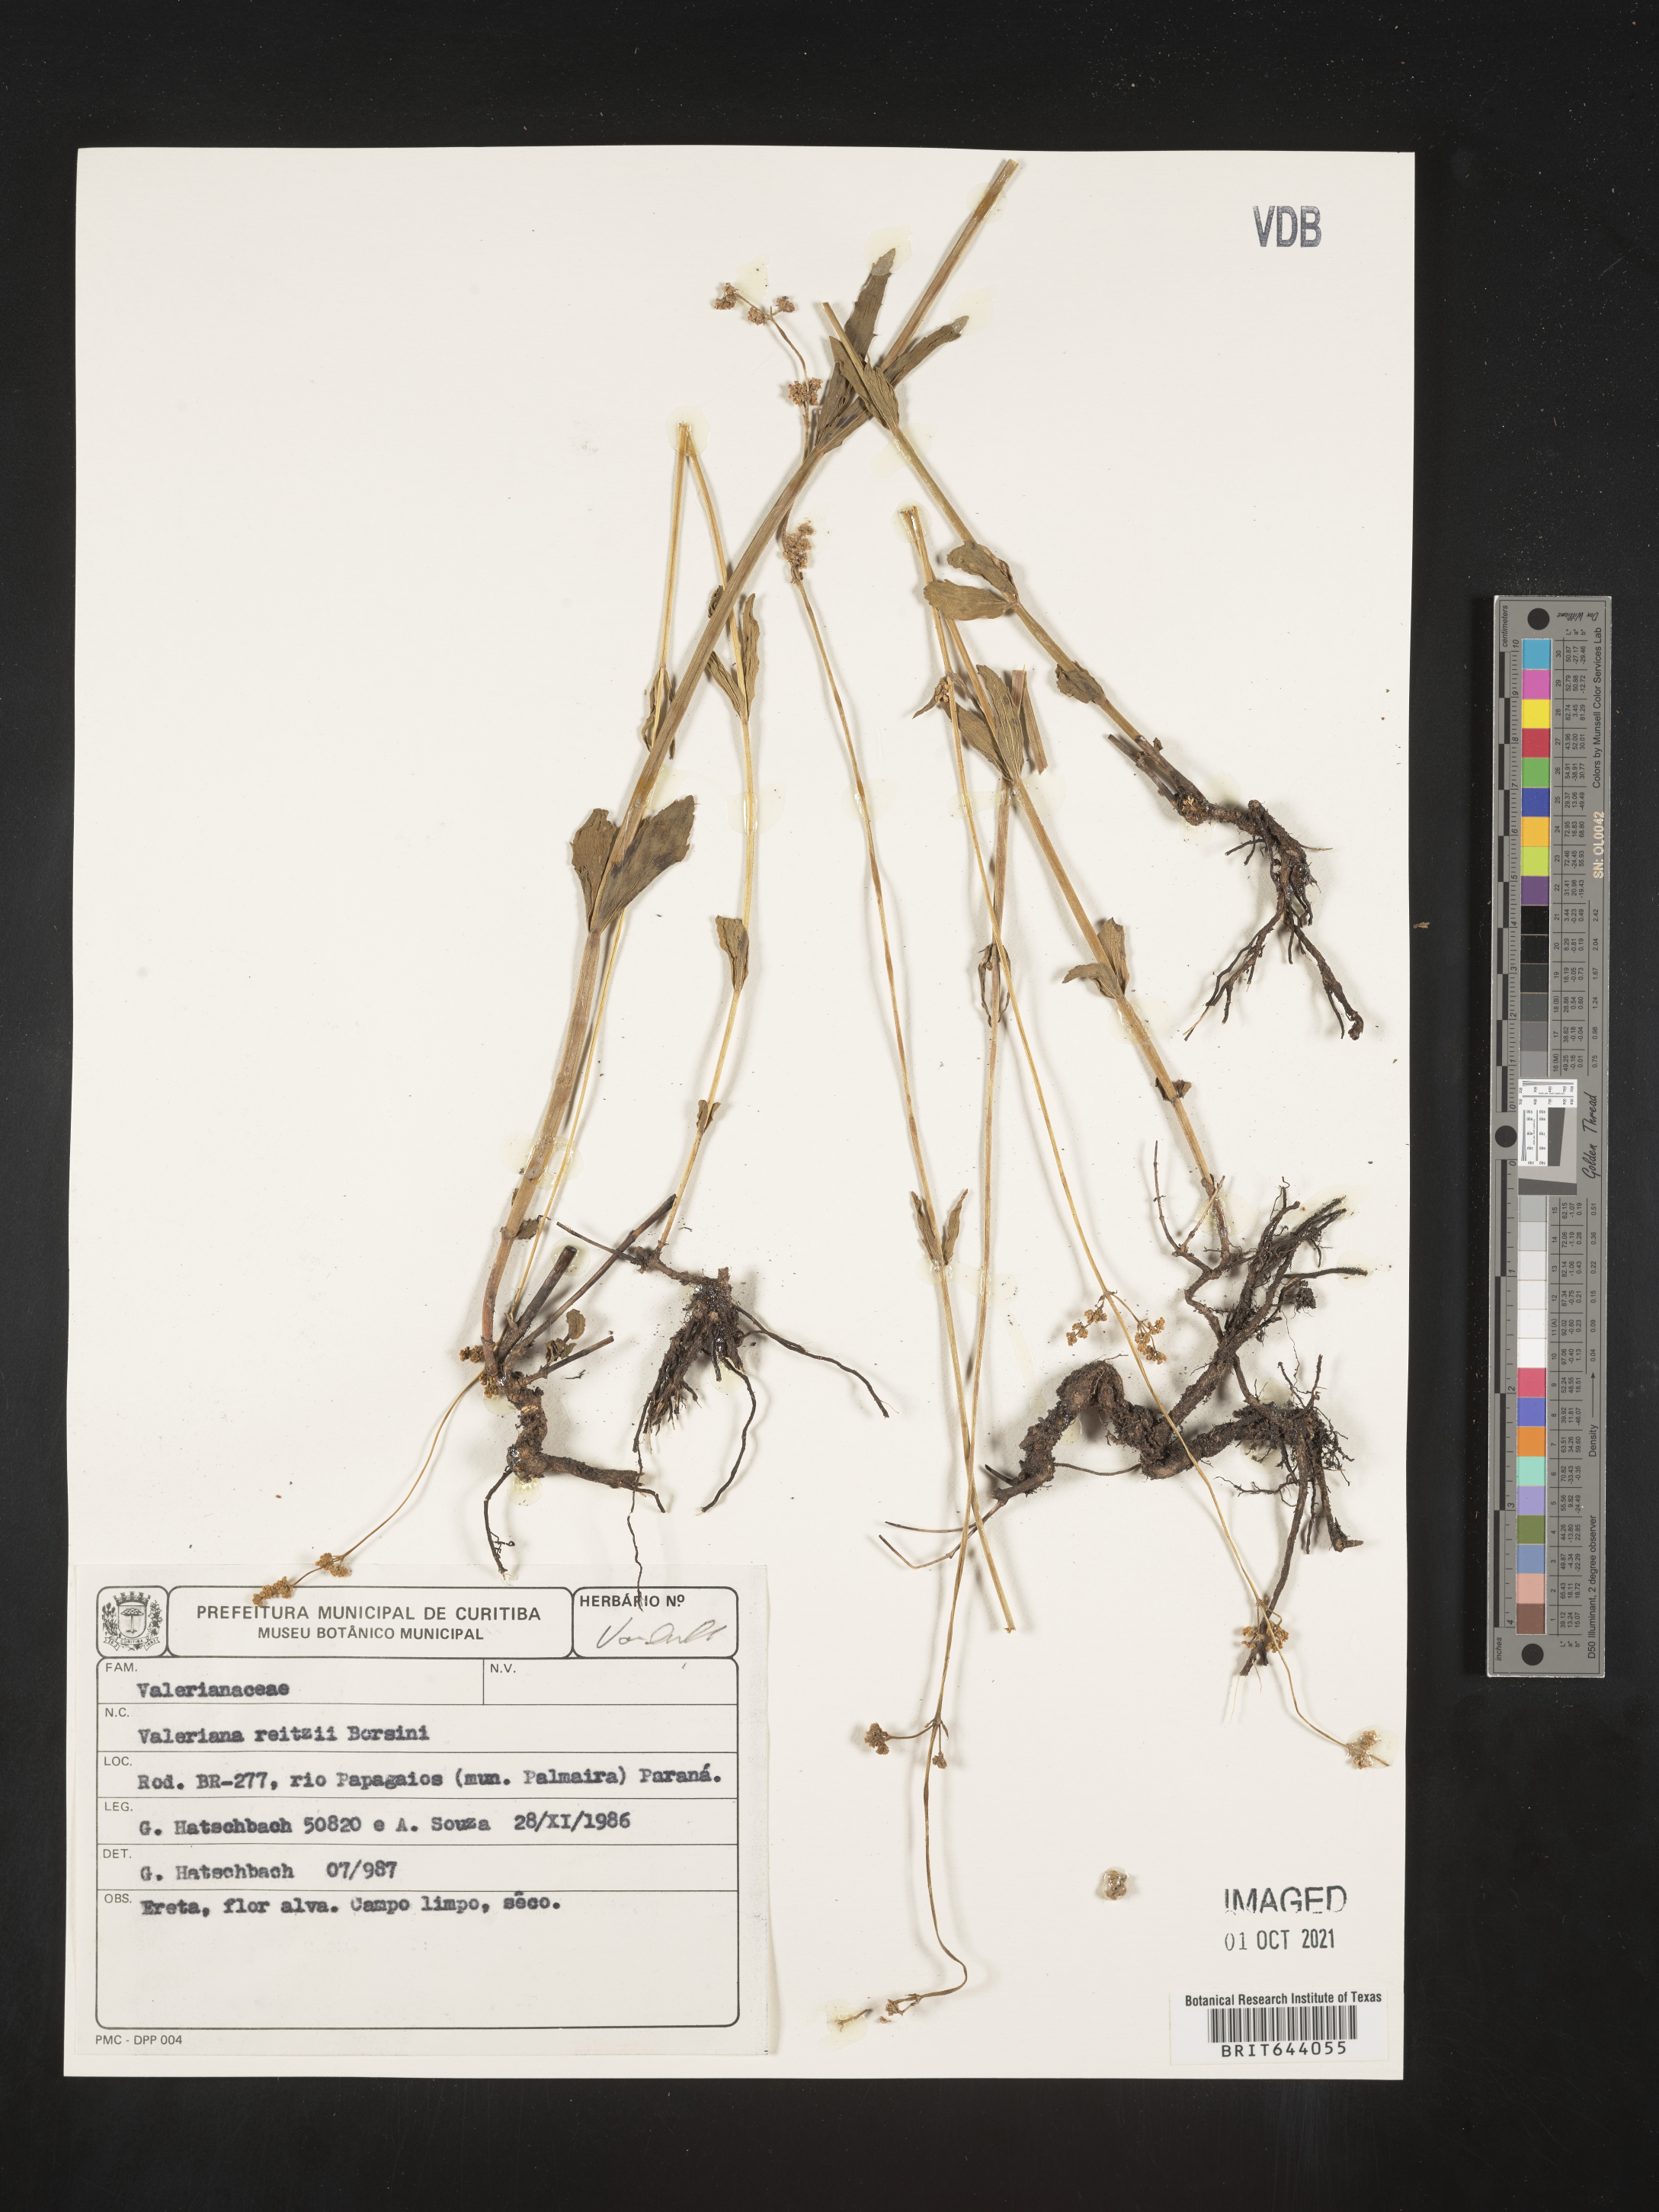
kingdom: Plantae
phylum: Tracheophyta
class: Magnoliopsida
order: Dipsacales
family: Caprifoliaceae
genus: Valeriana
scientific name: Valeriana reitziana
